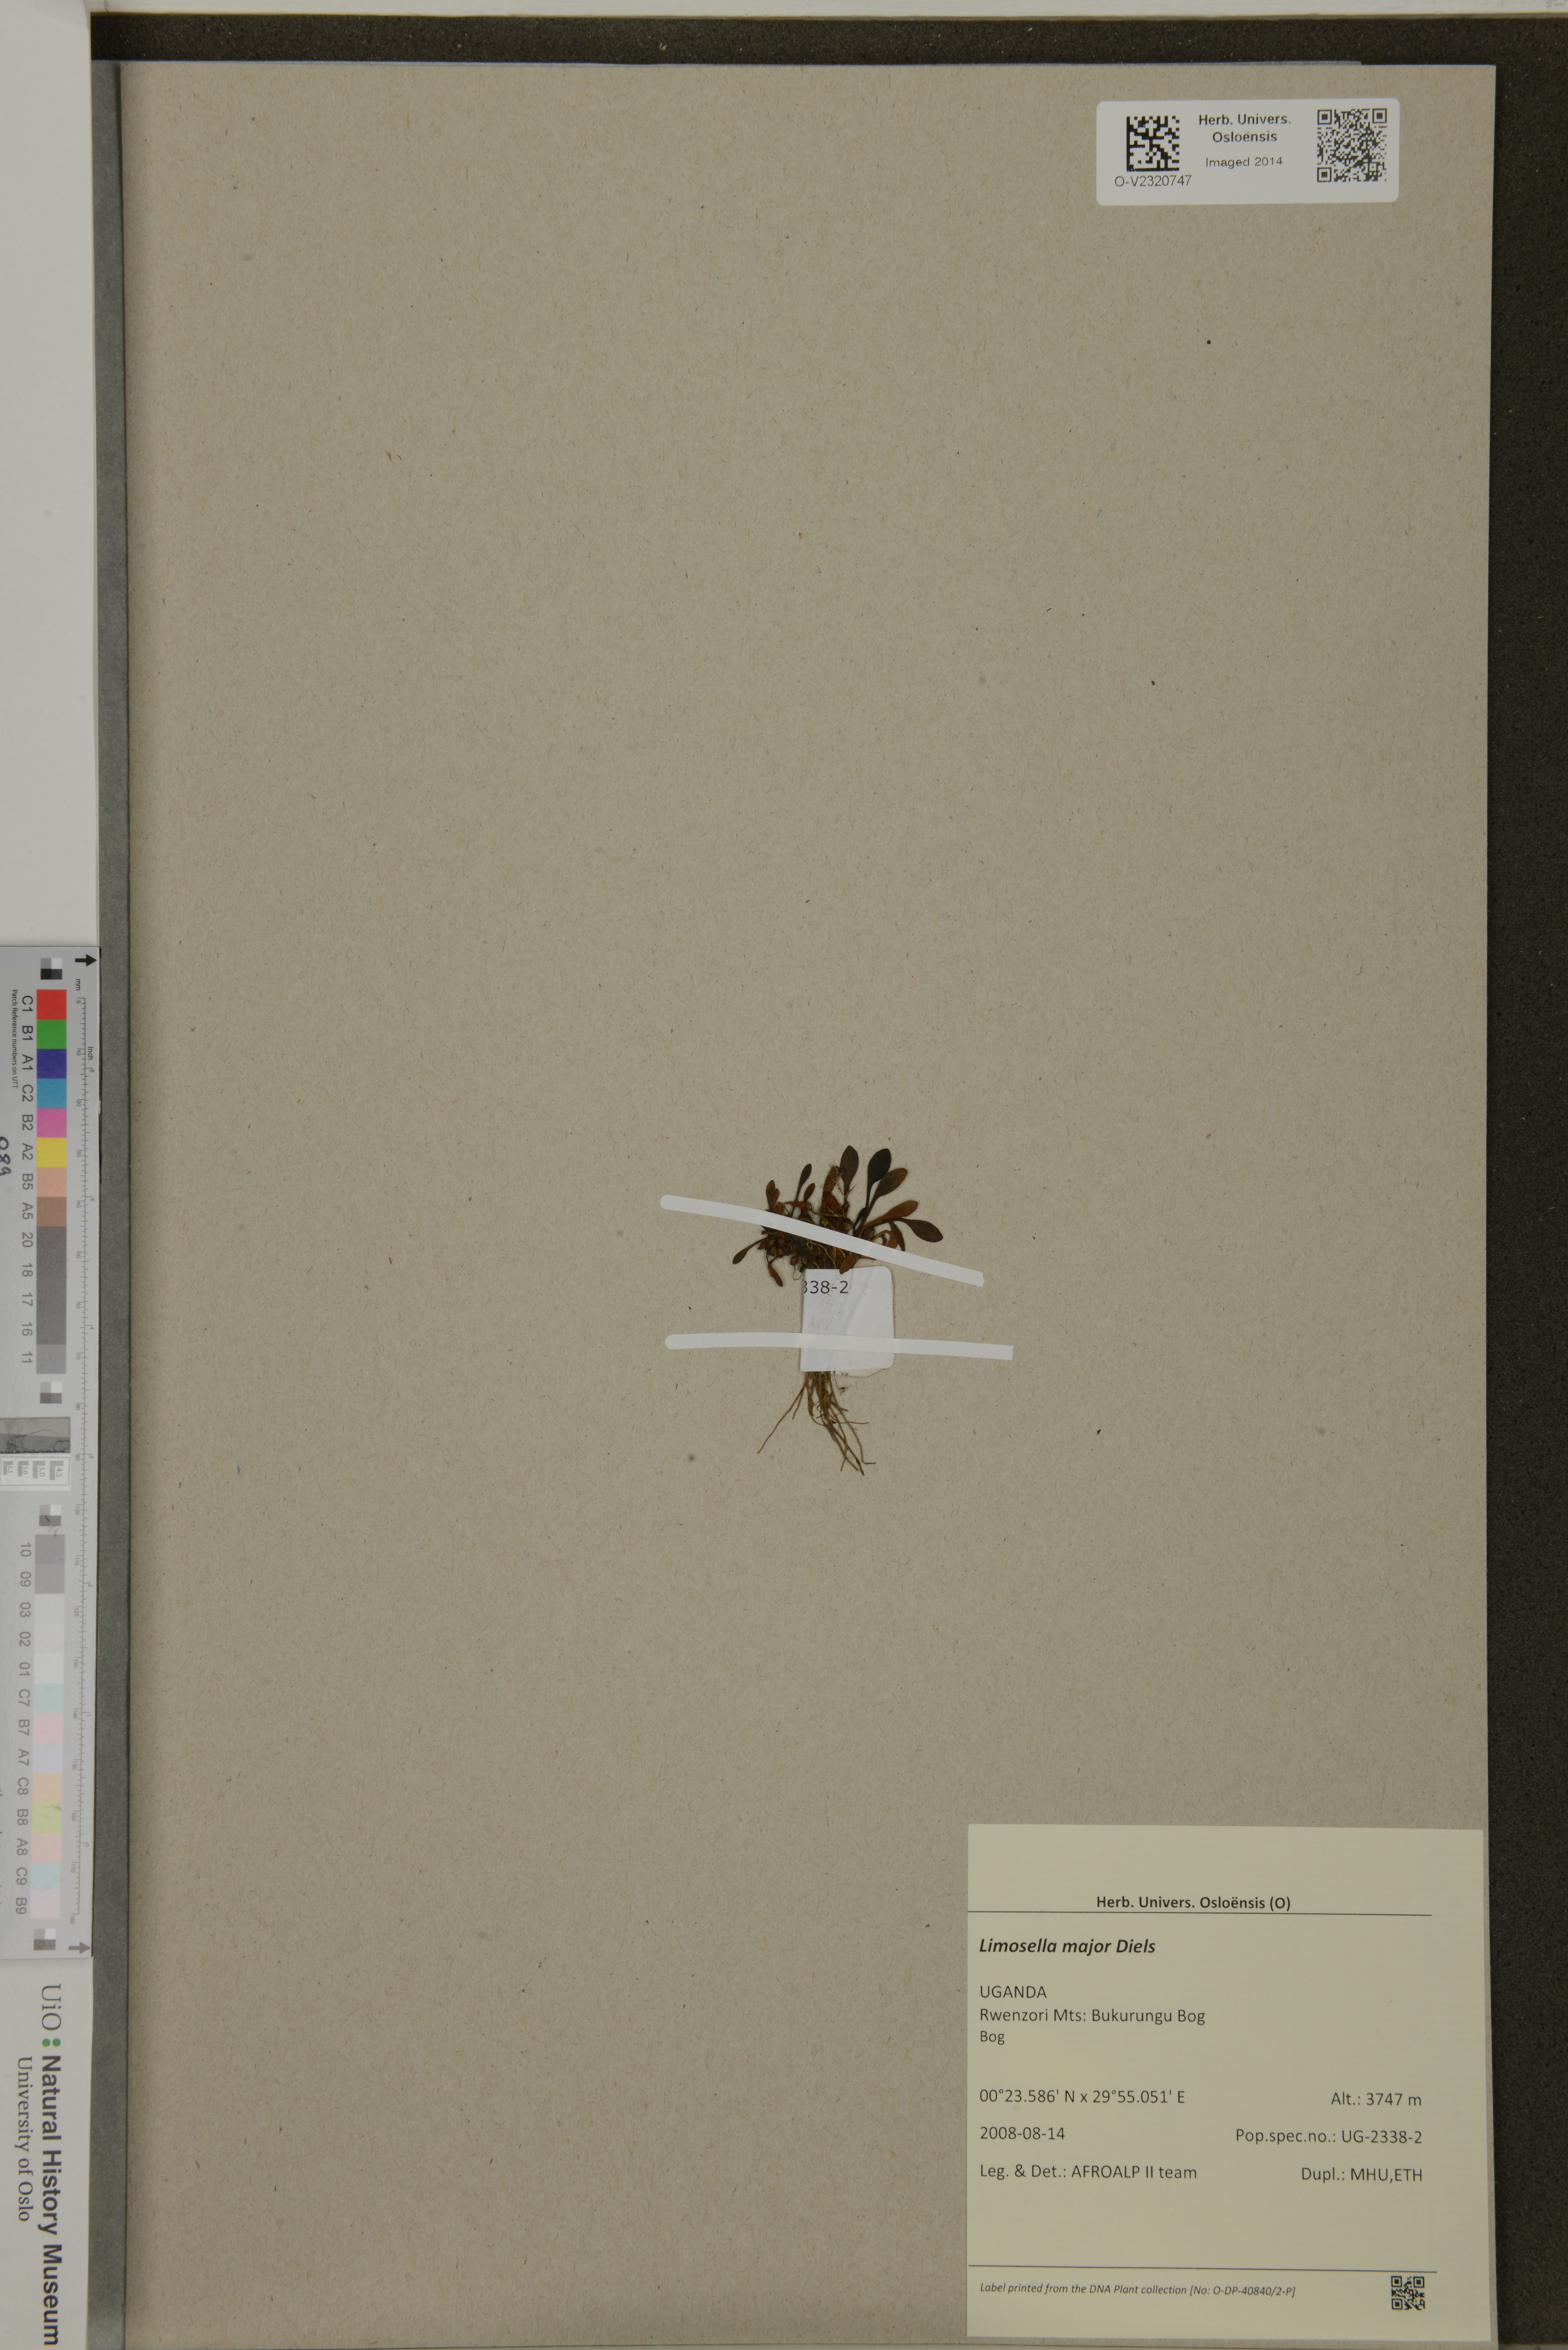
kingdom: Plantae
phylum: Tracheophyta
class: Magnoliopsida
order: Lamiales
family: Scrophulariaceae
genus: Limosella
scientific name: Limosella major
